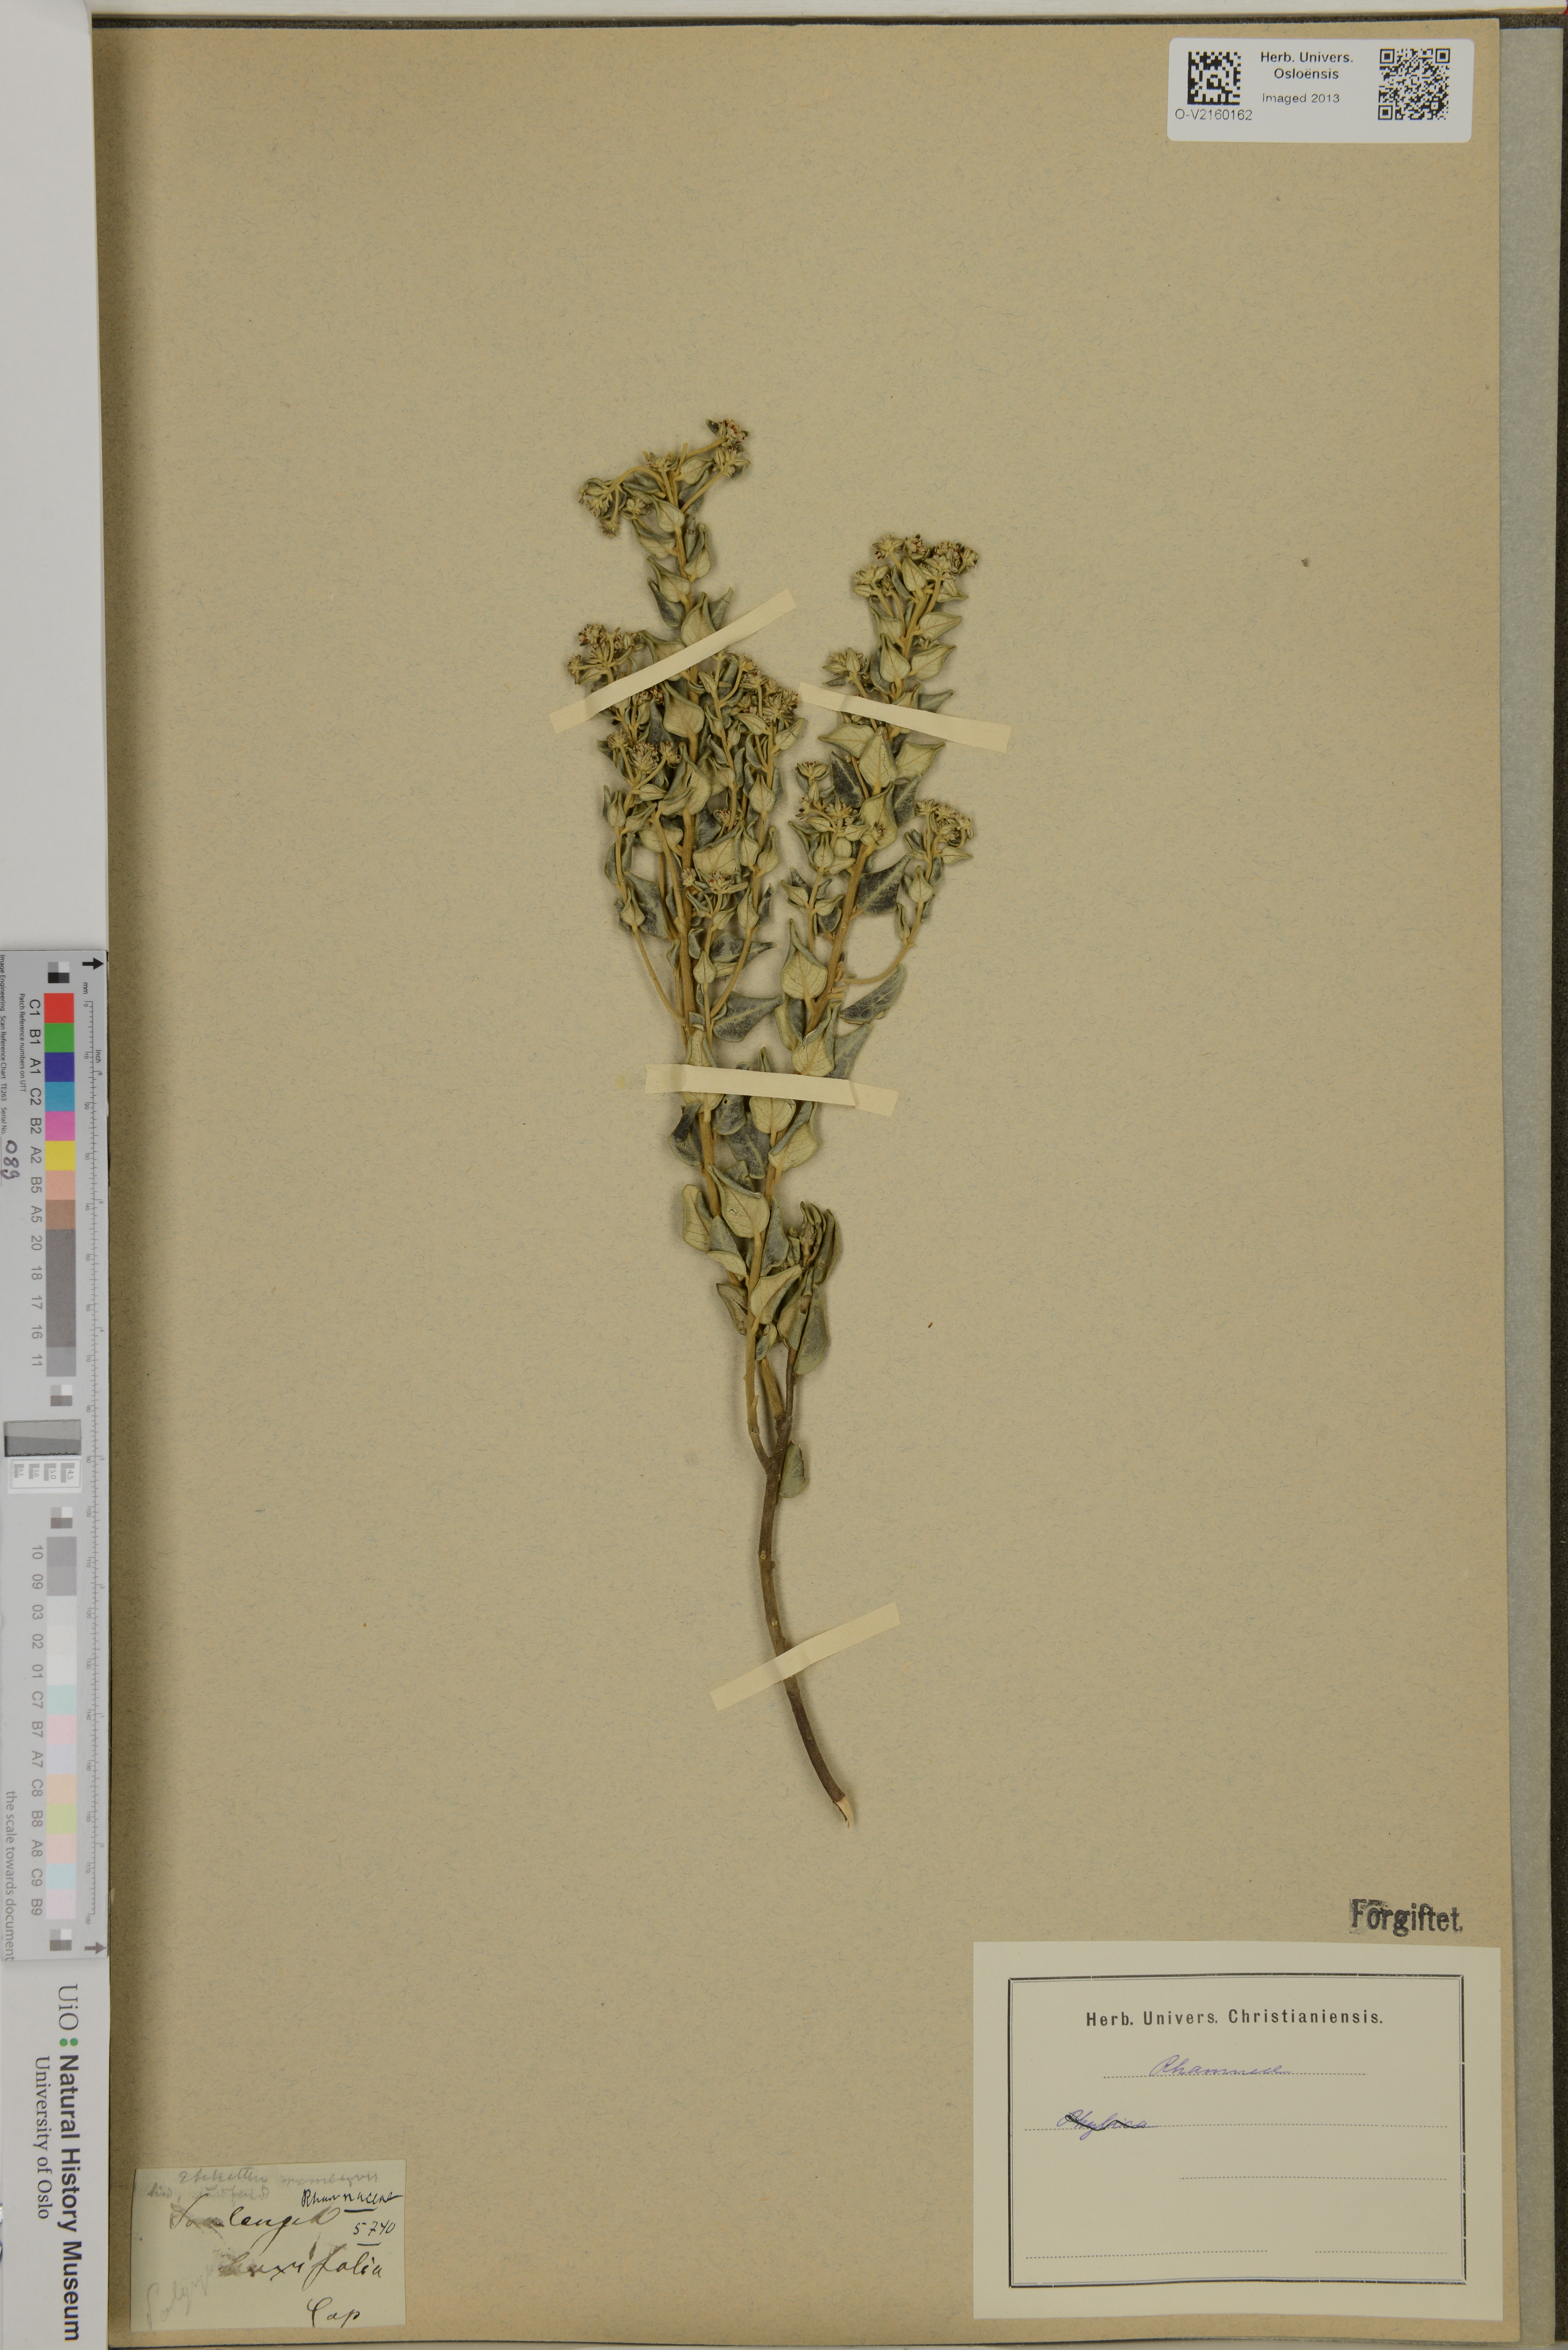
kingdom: Plantae
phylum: Tracheophyta
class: Magnoliopsida
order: Rosales
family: Rhamnaceae
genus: Phylica
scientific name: Phylica buxifolia
